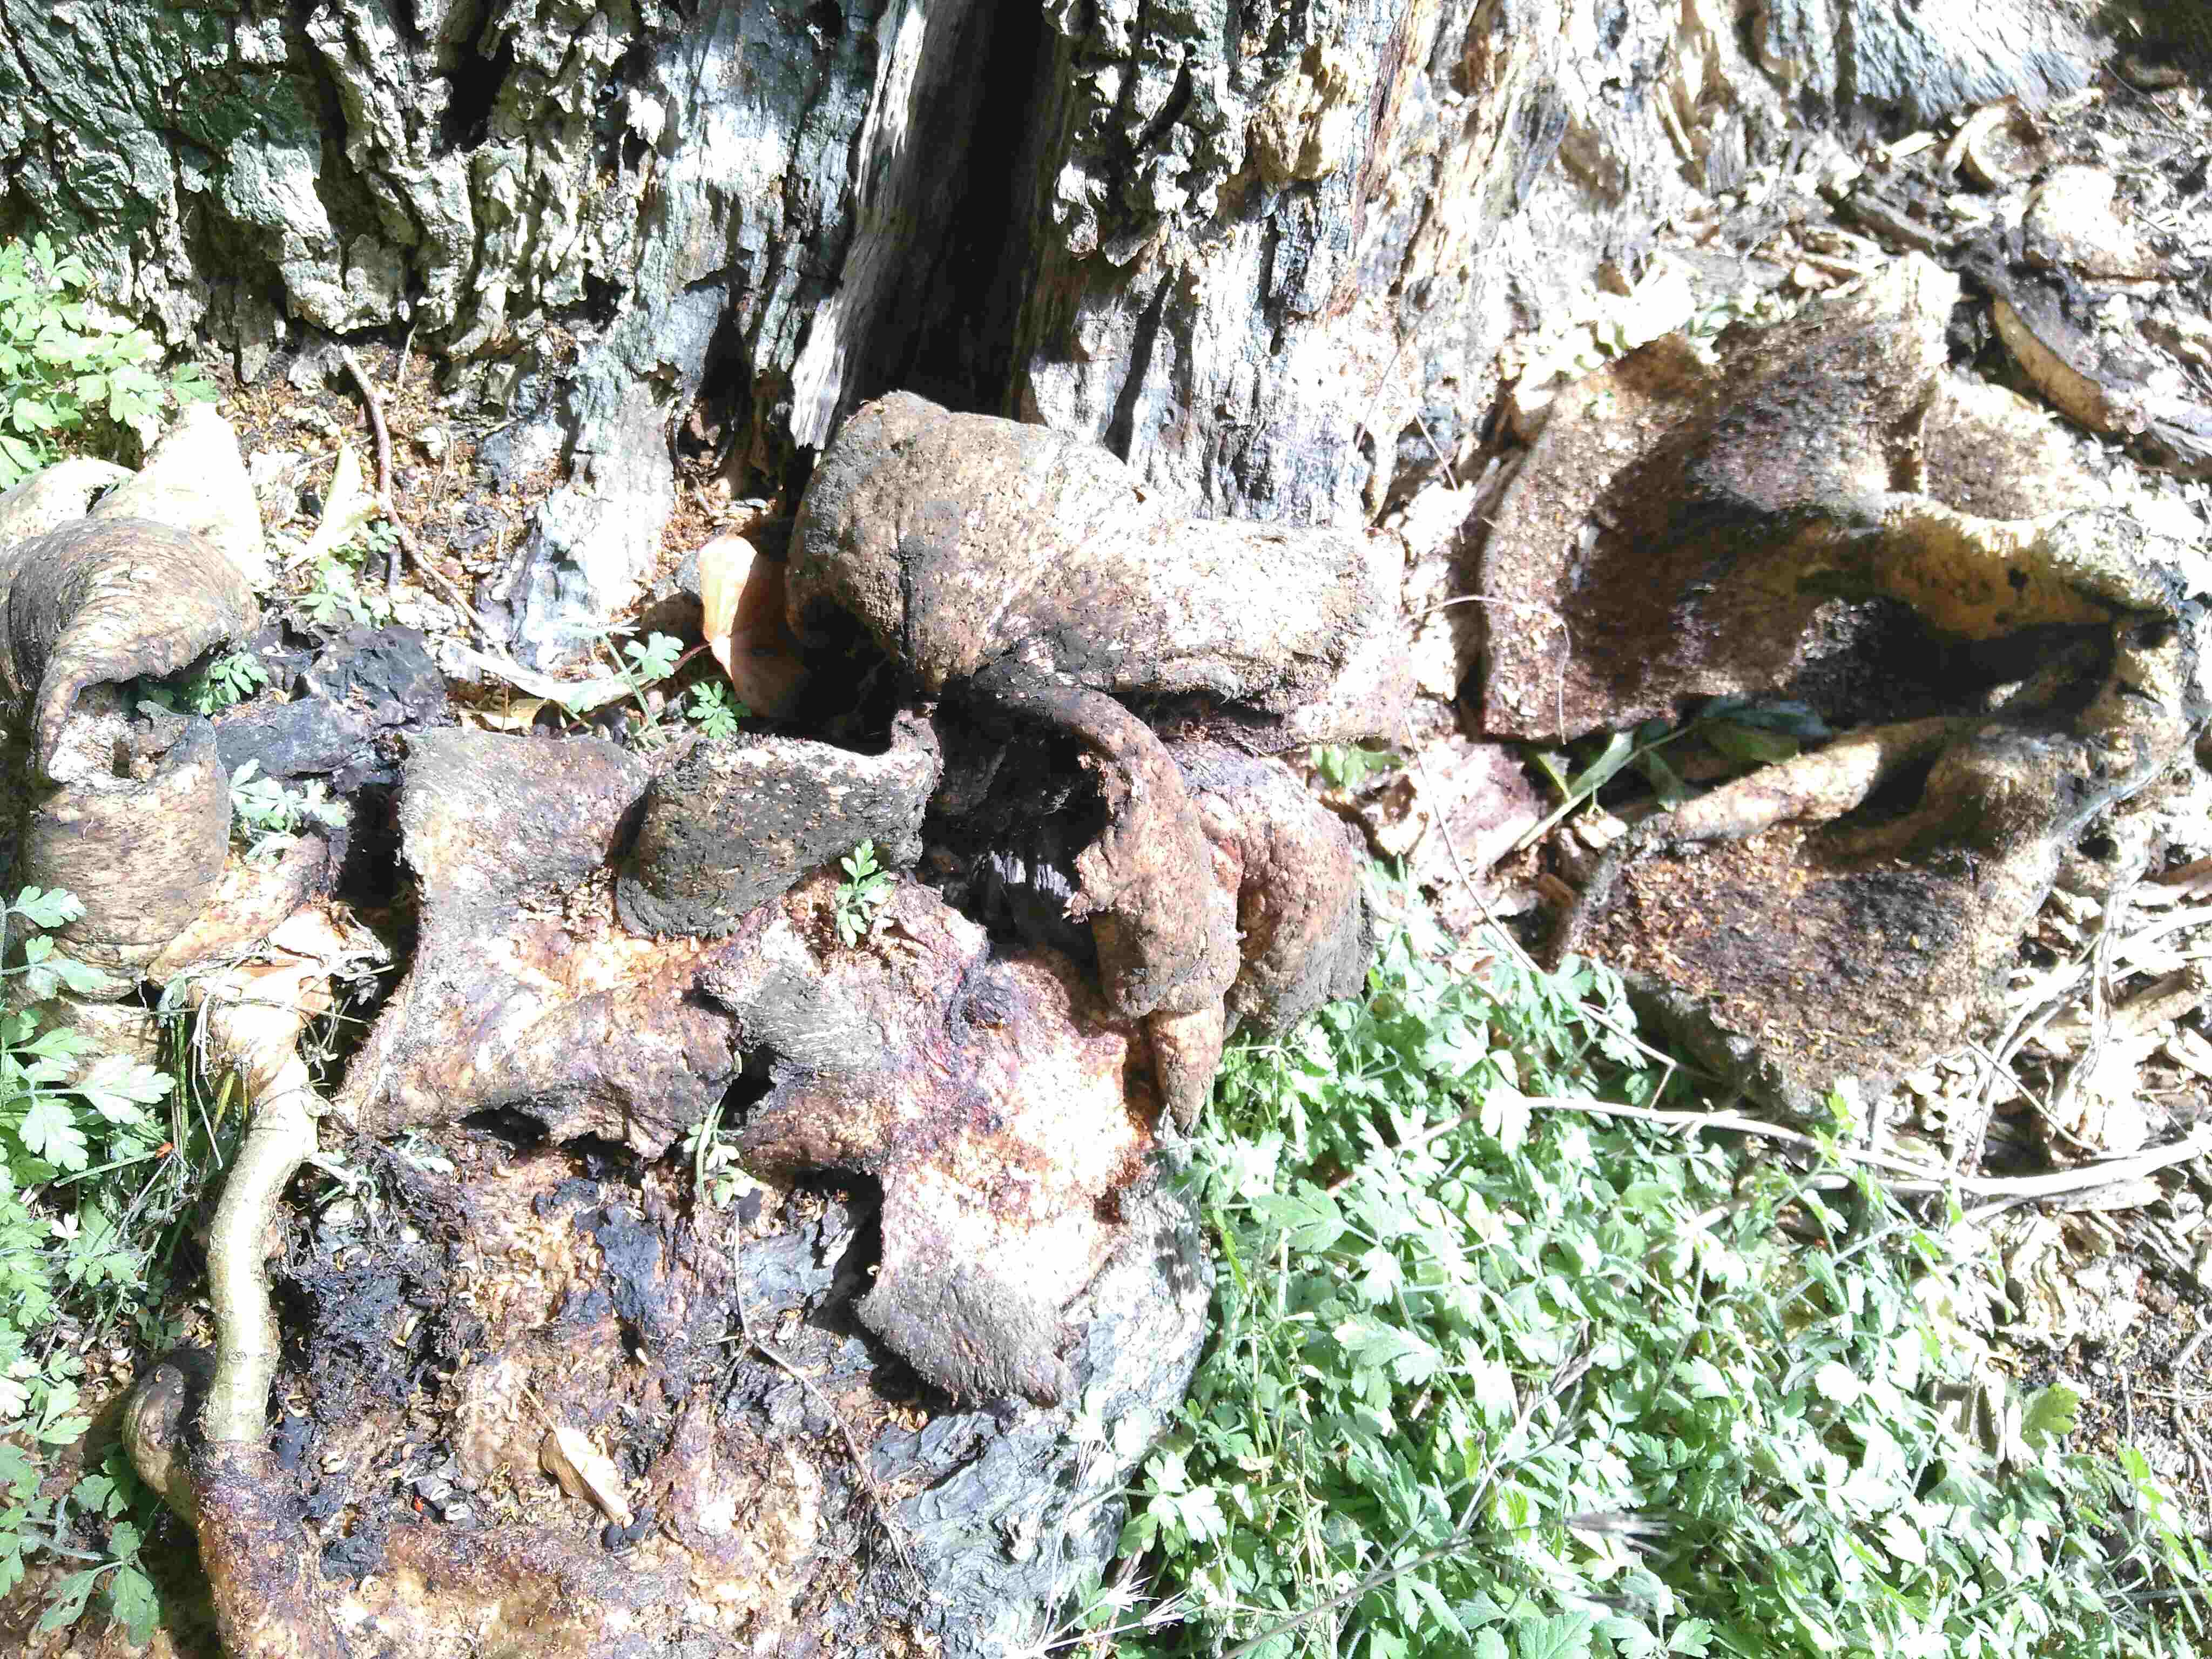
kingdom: Fungi
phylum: Basidiomycota
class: Agaricomycetes
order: Polyporales
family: Polyporaceae
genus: Cerioporus
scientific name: Cerioporus squamosus
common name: skællet stilkporesvamp
